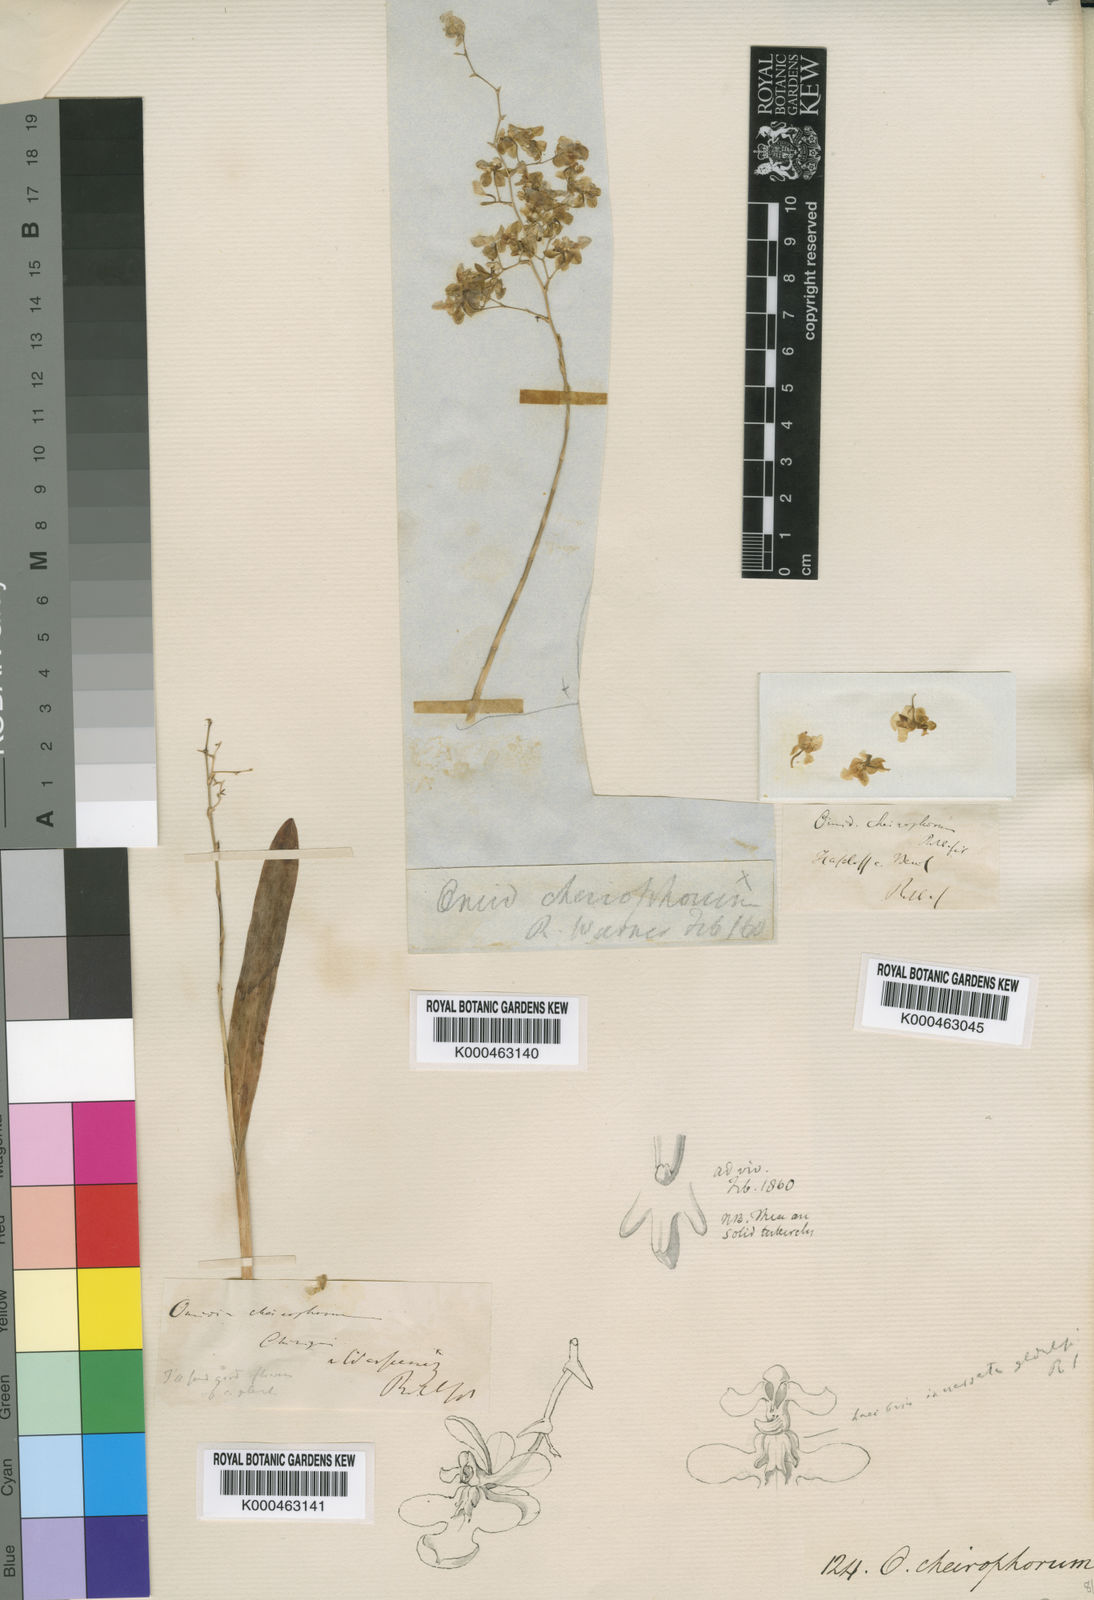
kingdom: Plantae
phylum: Tracheophyta
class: Liliopsida
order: Asparagales
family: Orchidaceae
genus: Oncidium
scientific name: Oncidium cheirophorum
